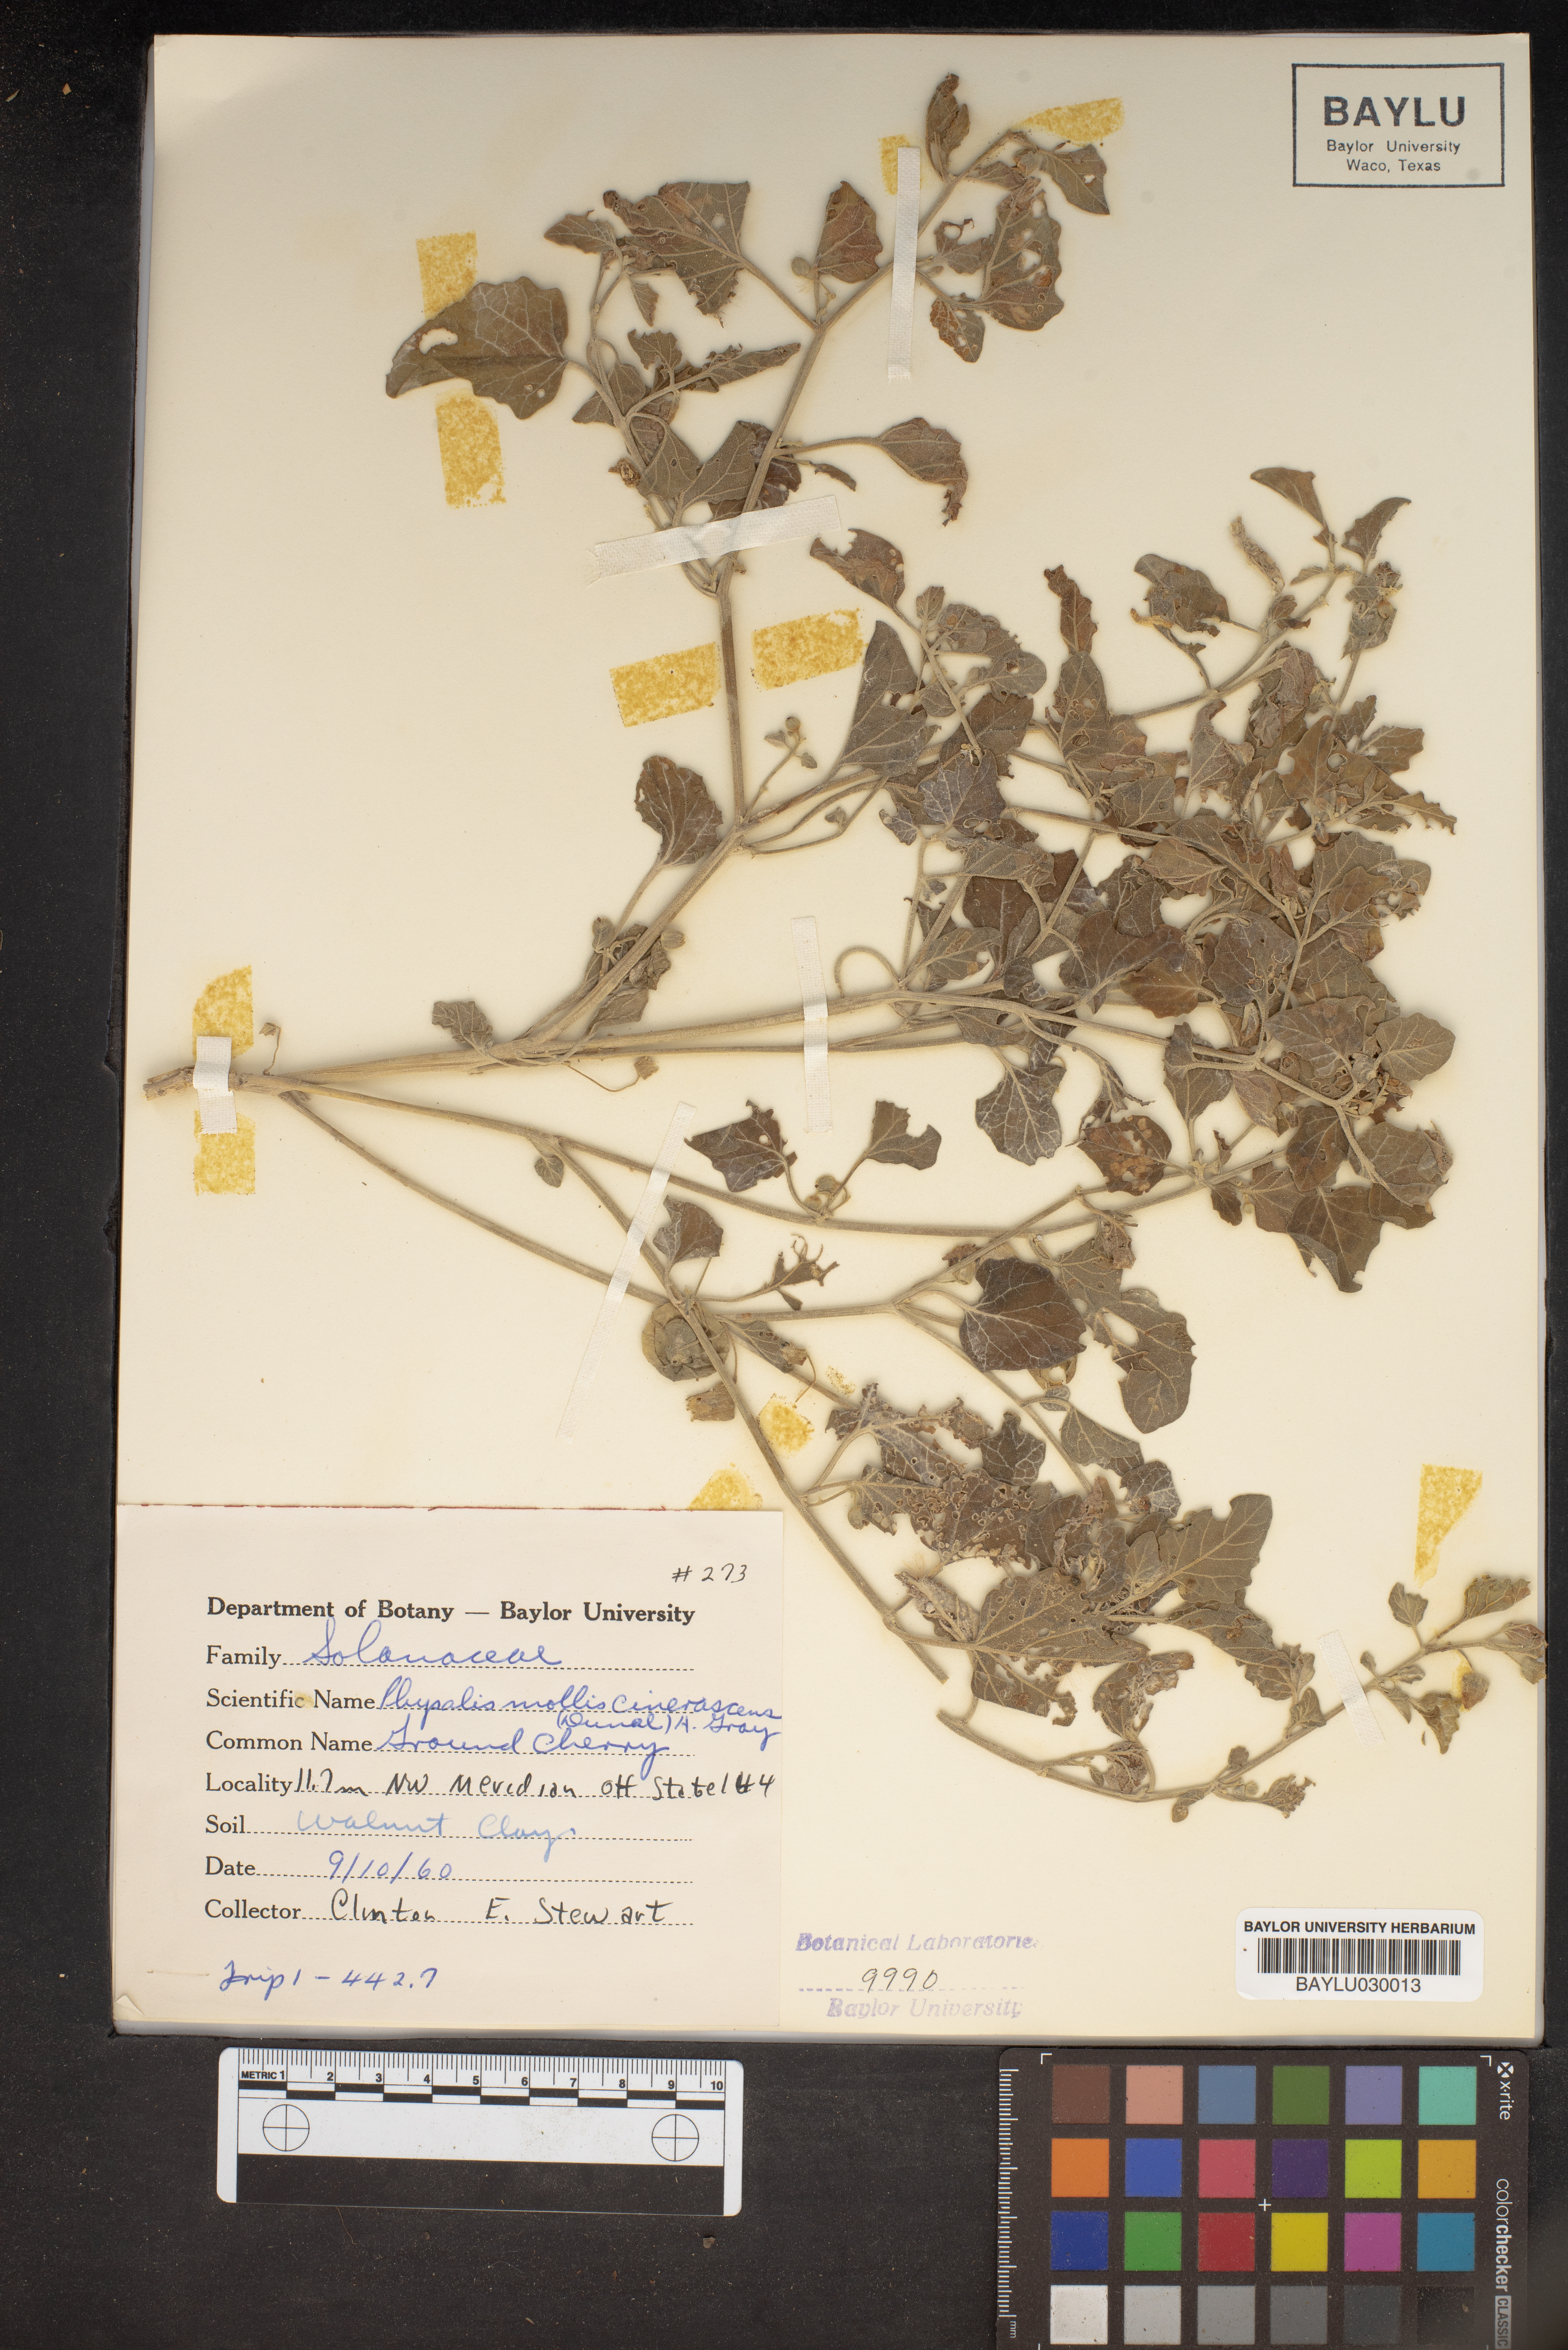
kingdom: Plantae
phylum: Tracheophyta
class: Magnoliopsida
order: Solanales
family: Solanaceae
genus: Physalis
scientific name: Physalis cinerascens
